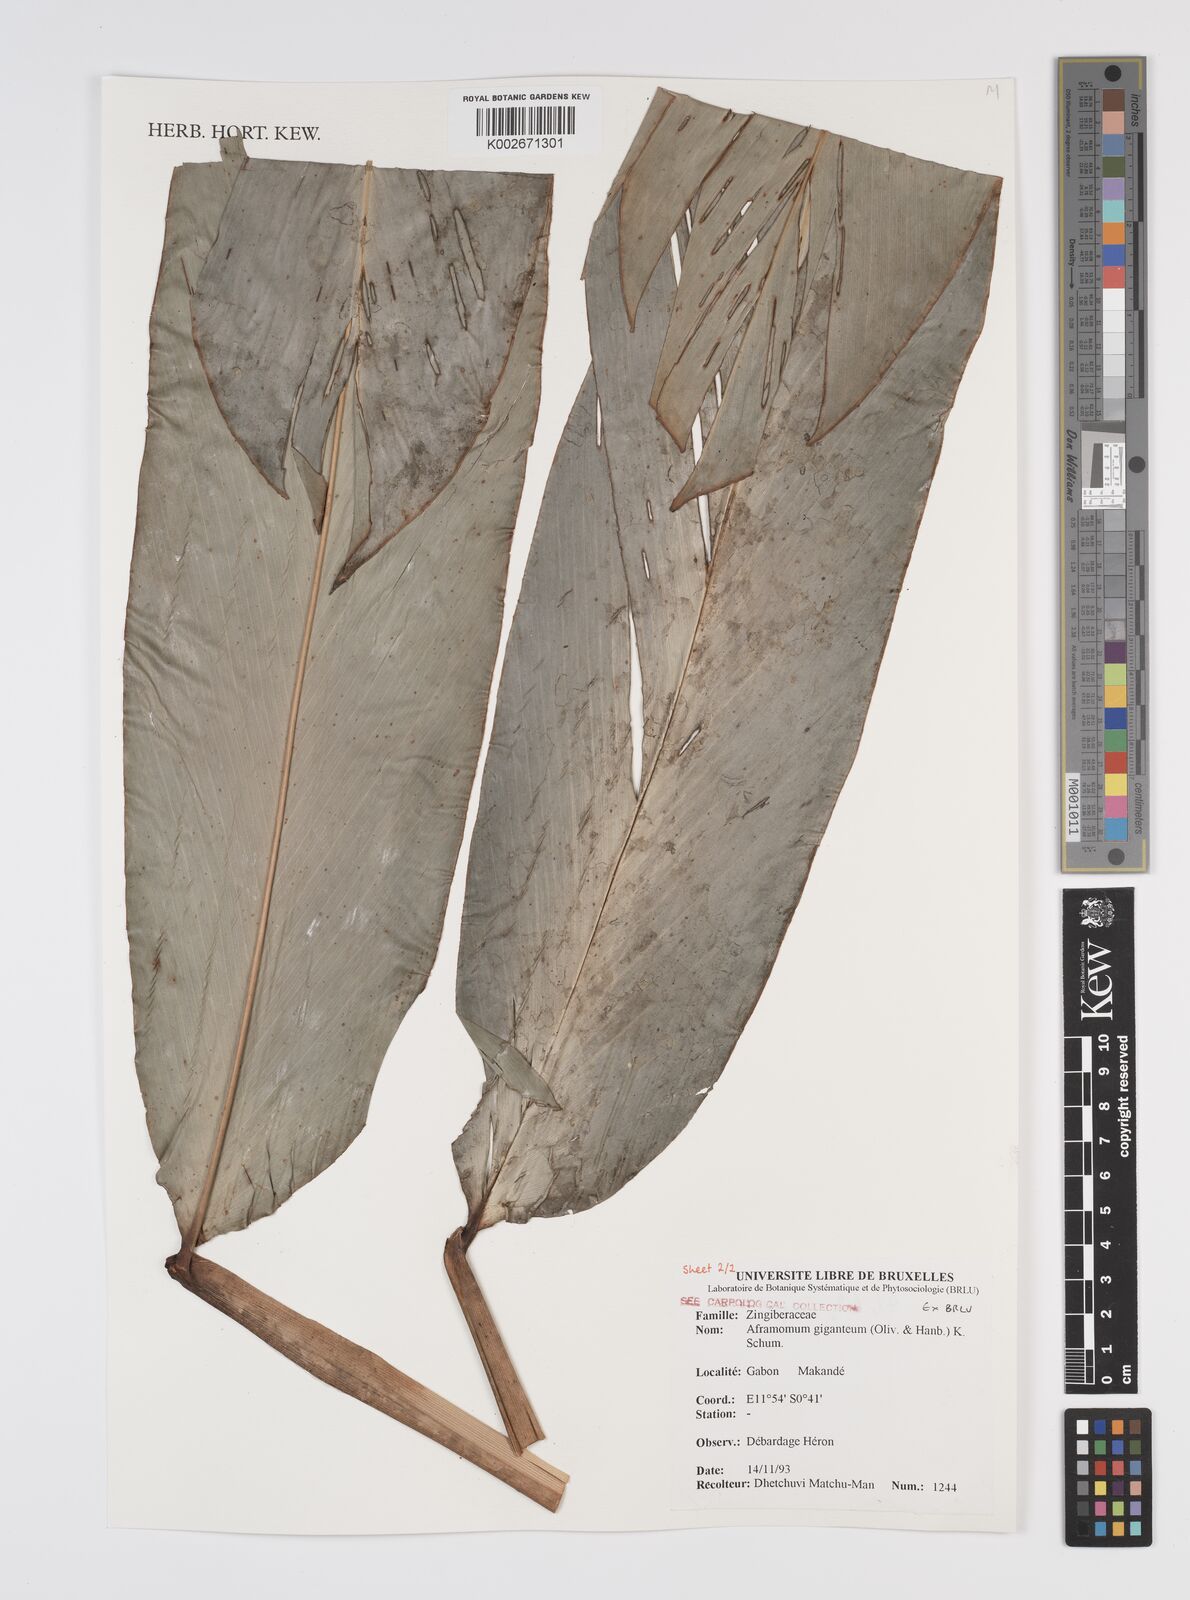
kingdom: Plantae
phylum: Tracheophyta
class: Liliopsida
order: Zingiberales
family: Zingiberaceae
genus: Aframomum
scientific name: Aframomum giganteum
